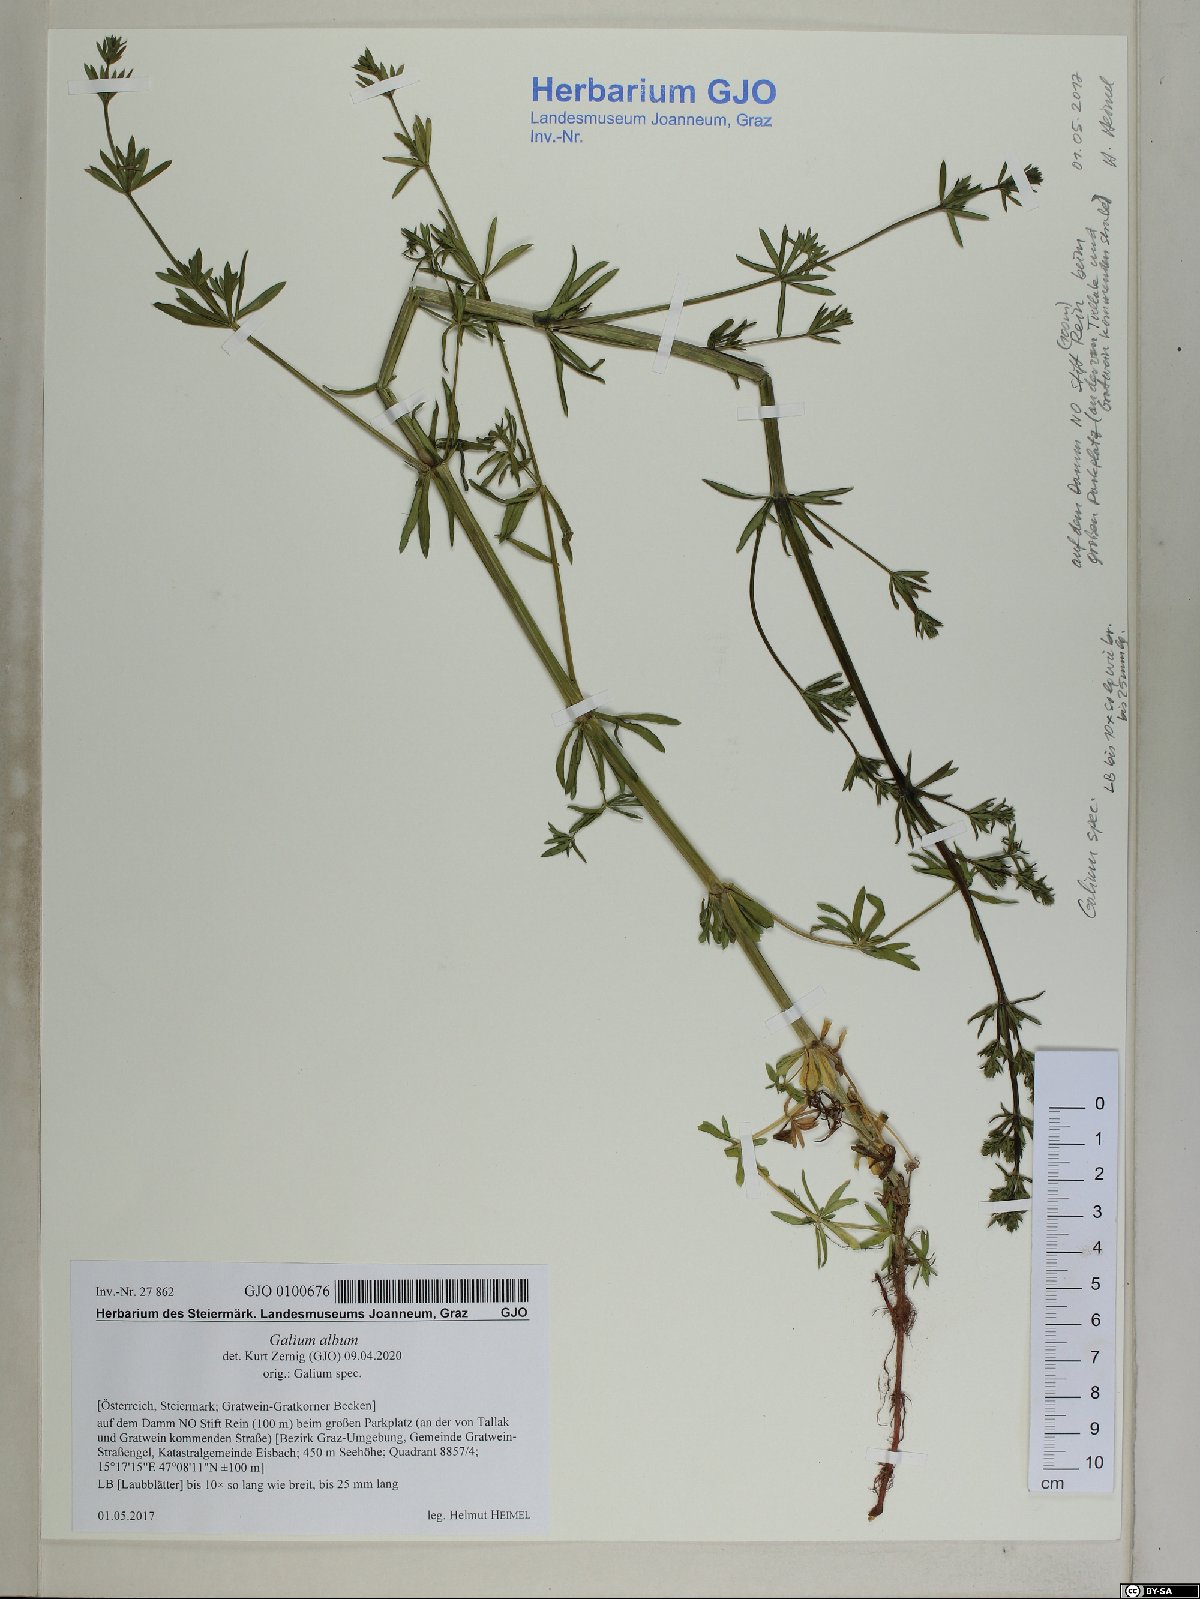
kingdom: Plantae
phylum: Tracheophyta
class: Magnoliopsida
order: Gentianales
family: Rubiaceae
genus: Galium
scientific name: Galium album
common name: White bedstraw
